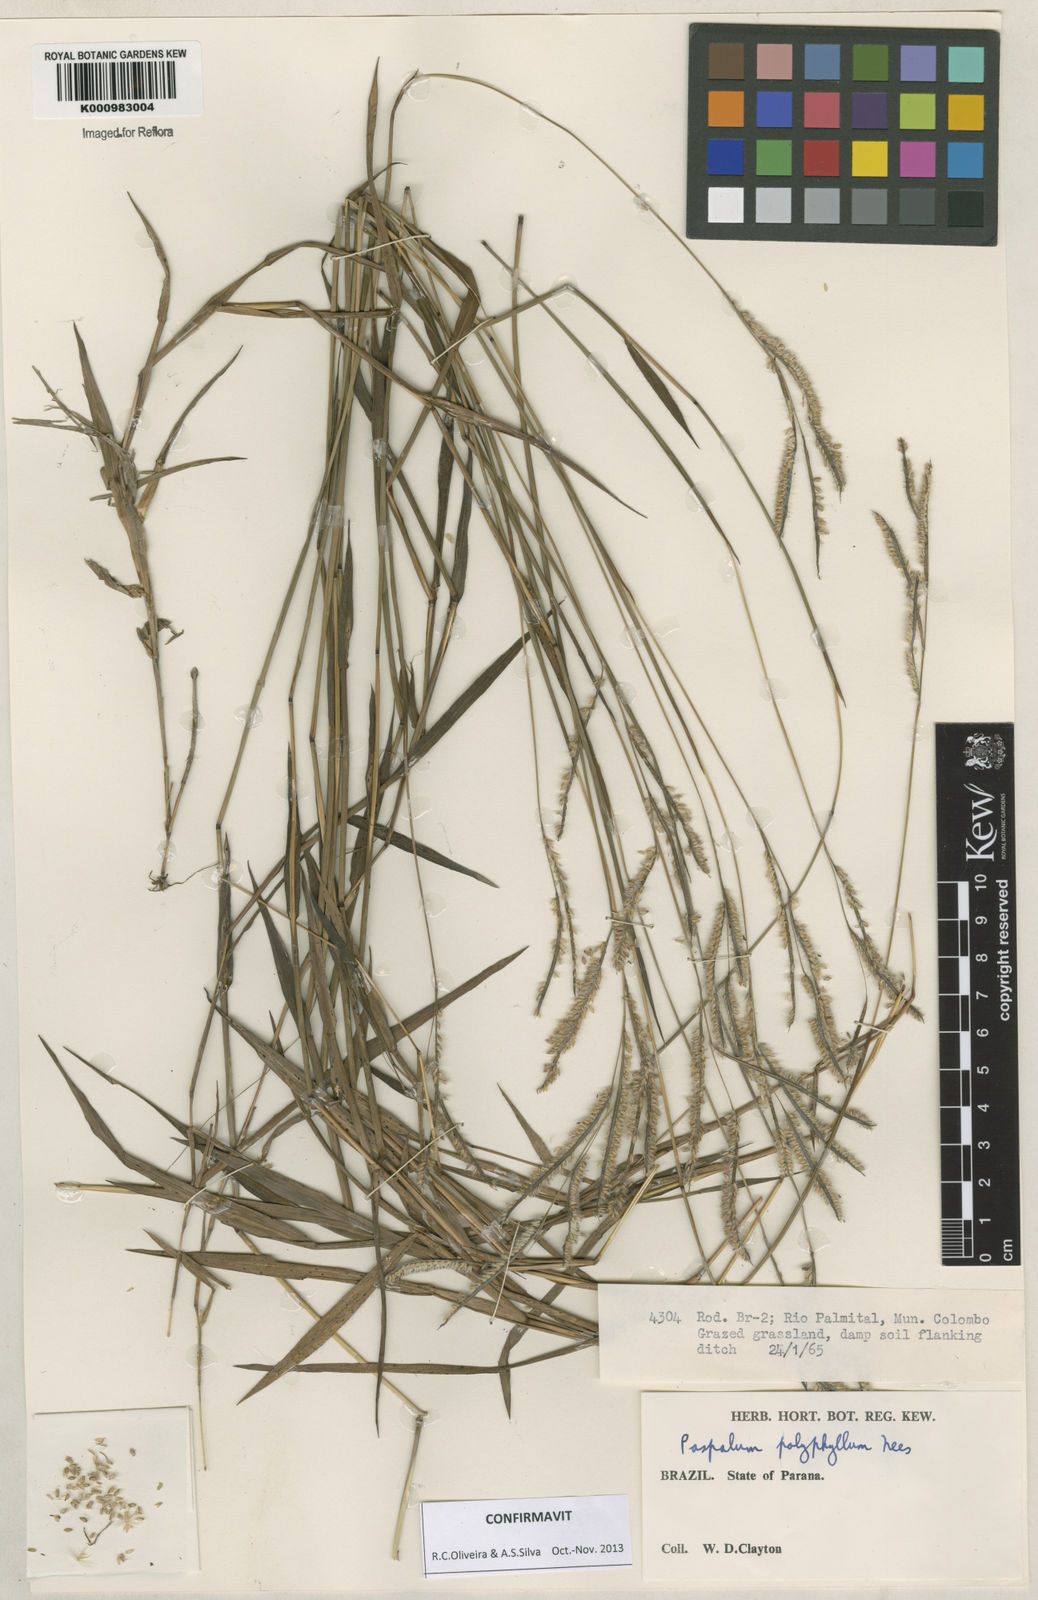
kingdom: Plantae
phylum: Tracheophyta
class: Liliopsida
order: Poales
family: Poaceae
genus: Paspalum
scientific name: Paspalum
